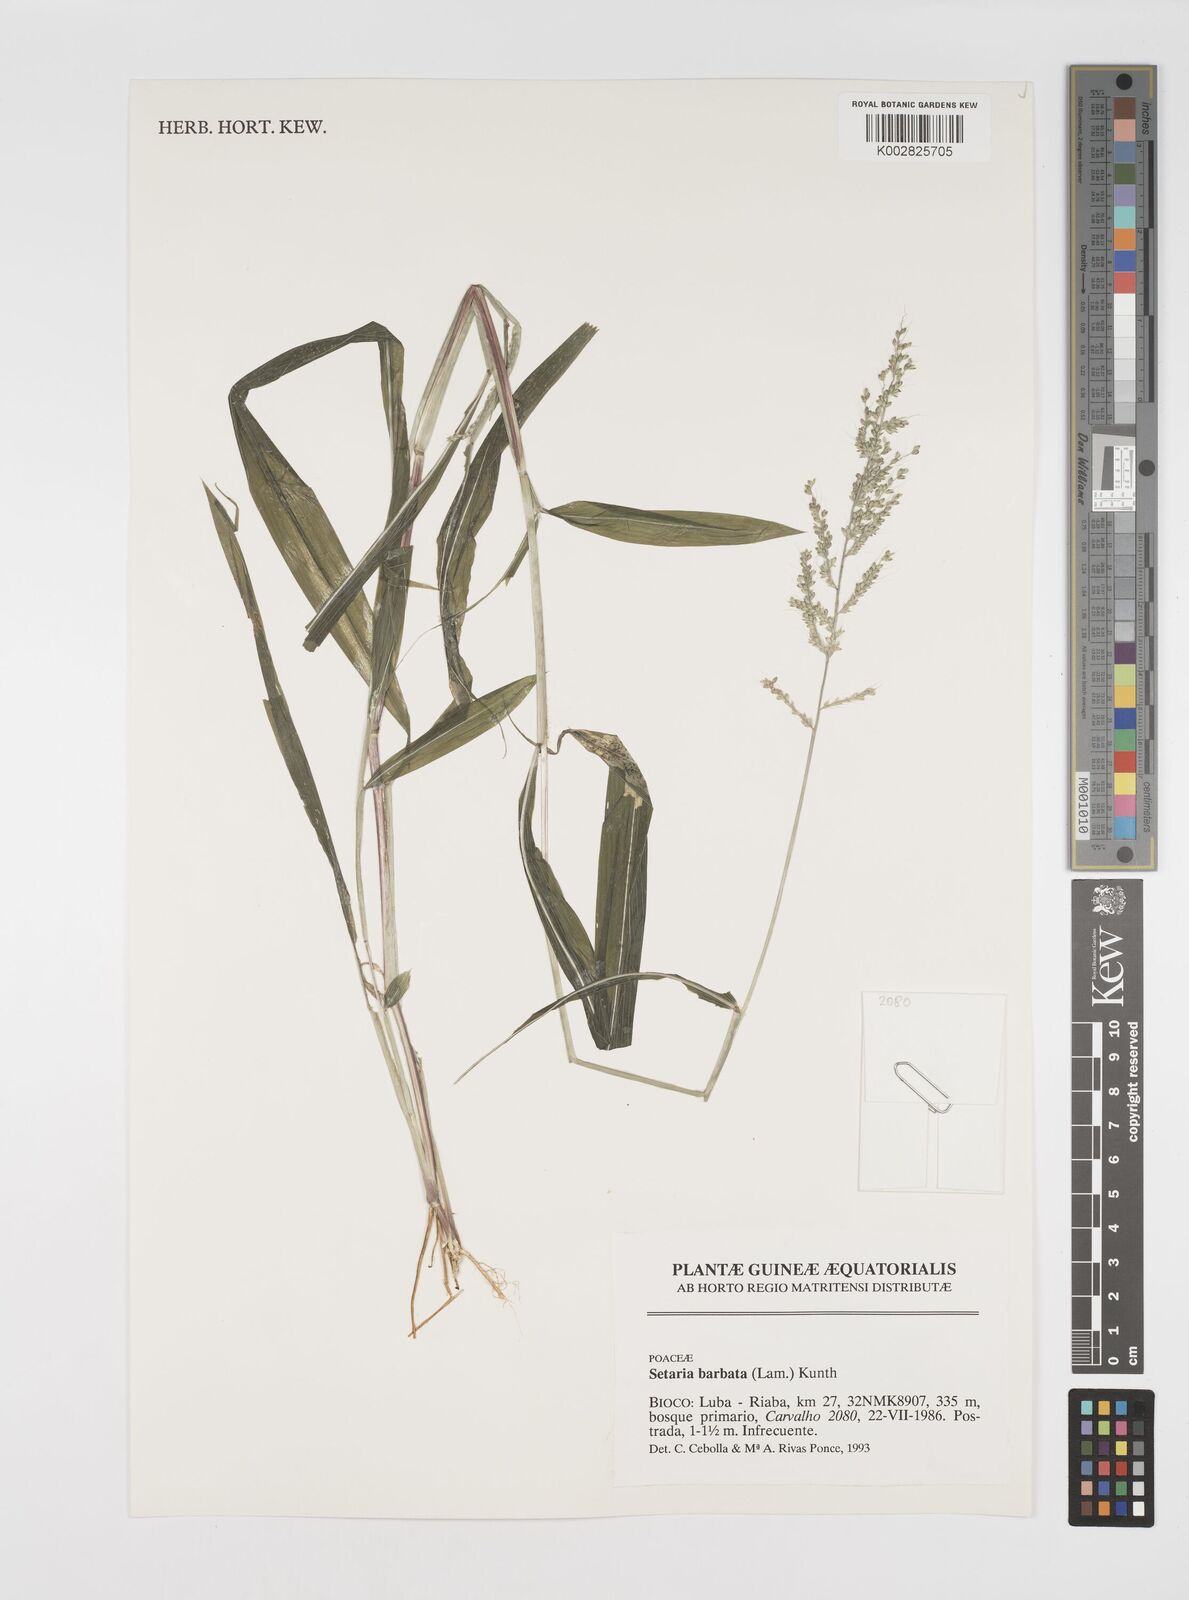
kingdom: Plantae
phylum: Tracheophyta
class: Liliopsida
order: Poales
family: Poaceae
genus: Setaria
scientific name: Setaria barbata
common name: East indian bristlegrass
